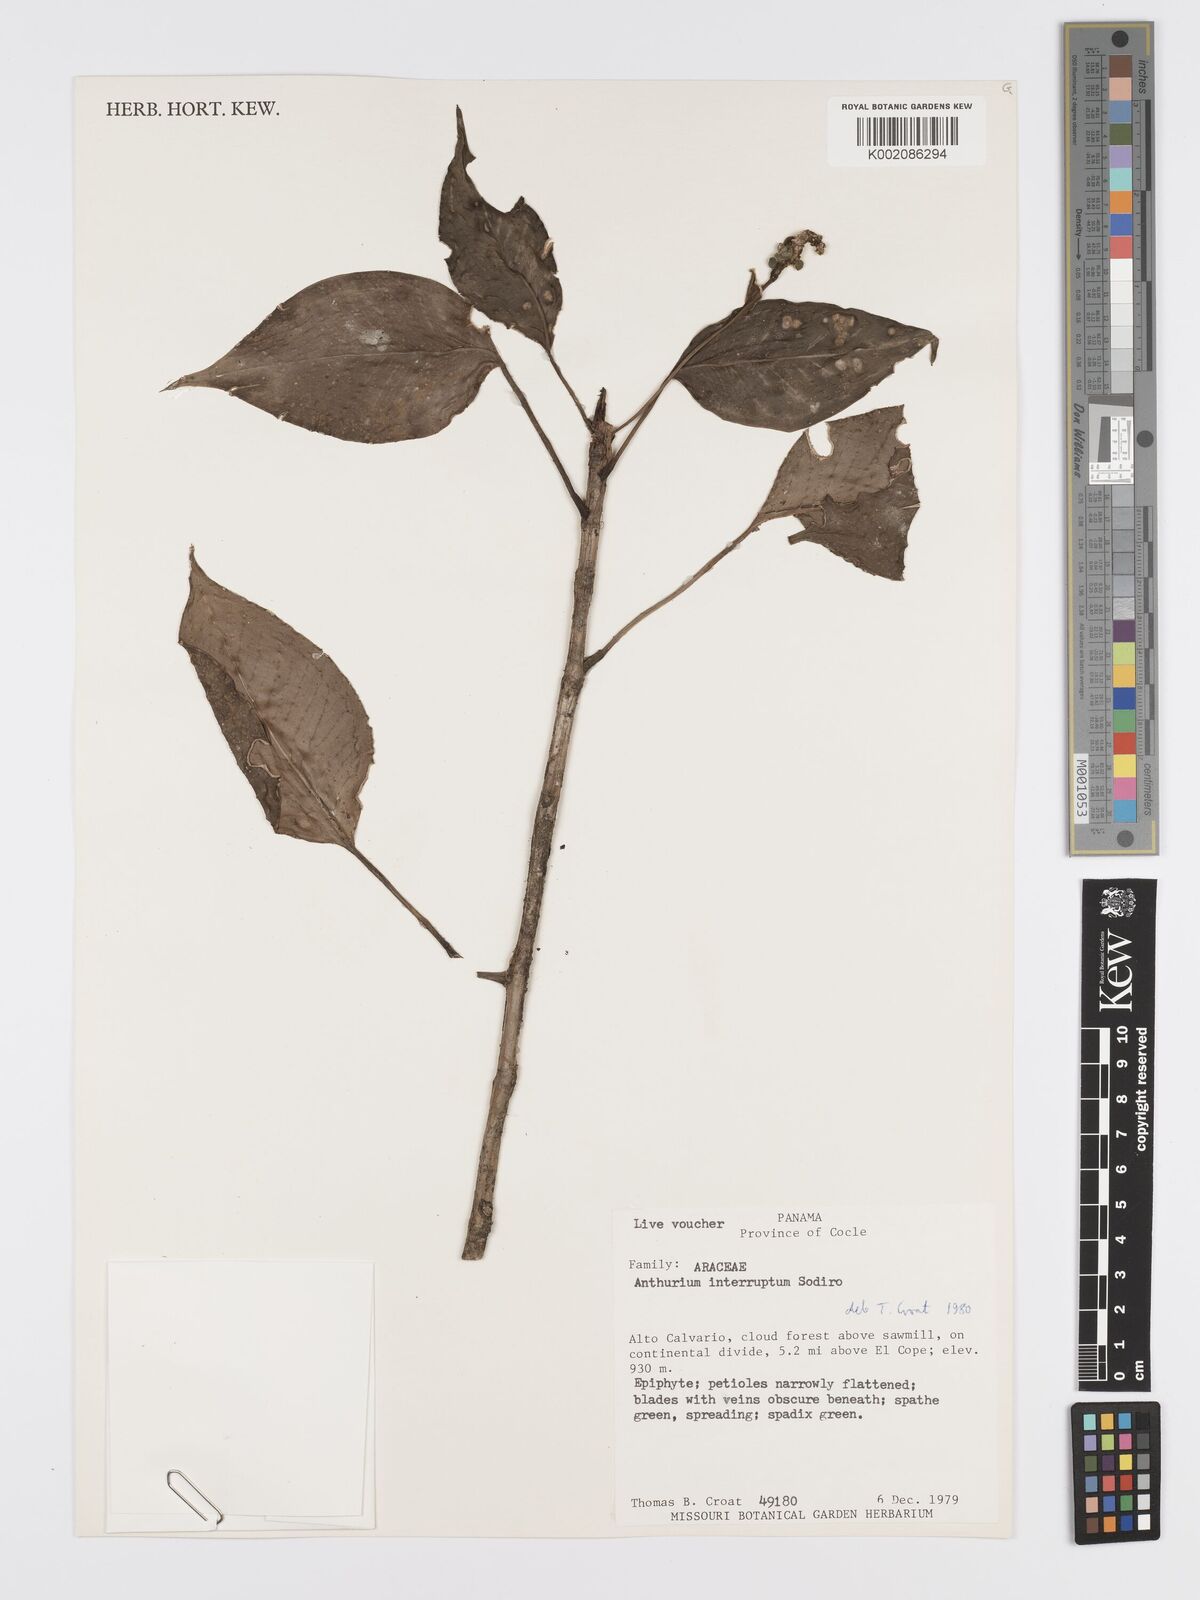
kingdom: Plantae
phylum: Tracheophyta
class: Liliopsida
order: Alismatales
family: Araceae
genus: Anthurium
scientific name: Anthurium interruptum
